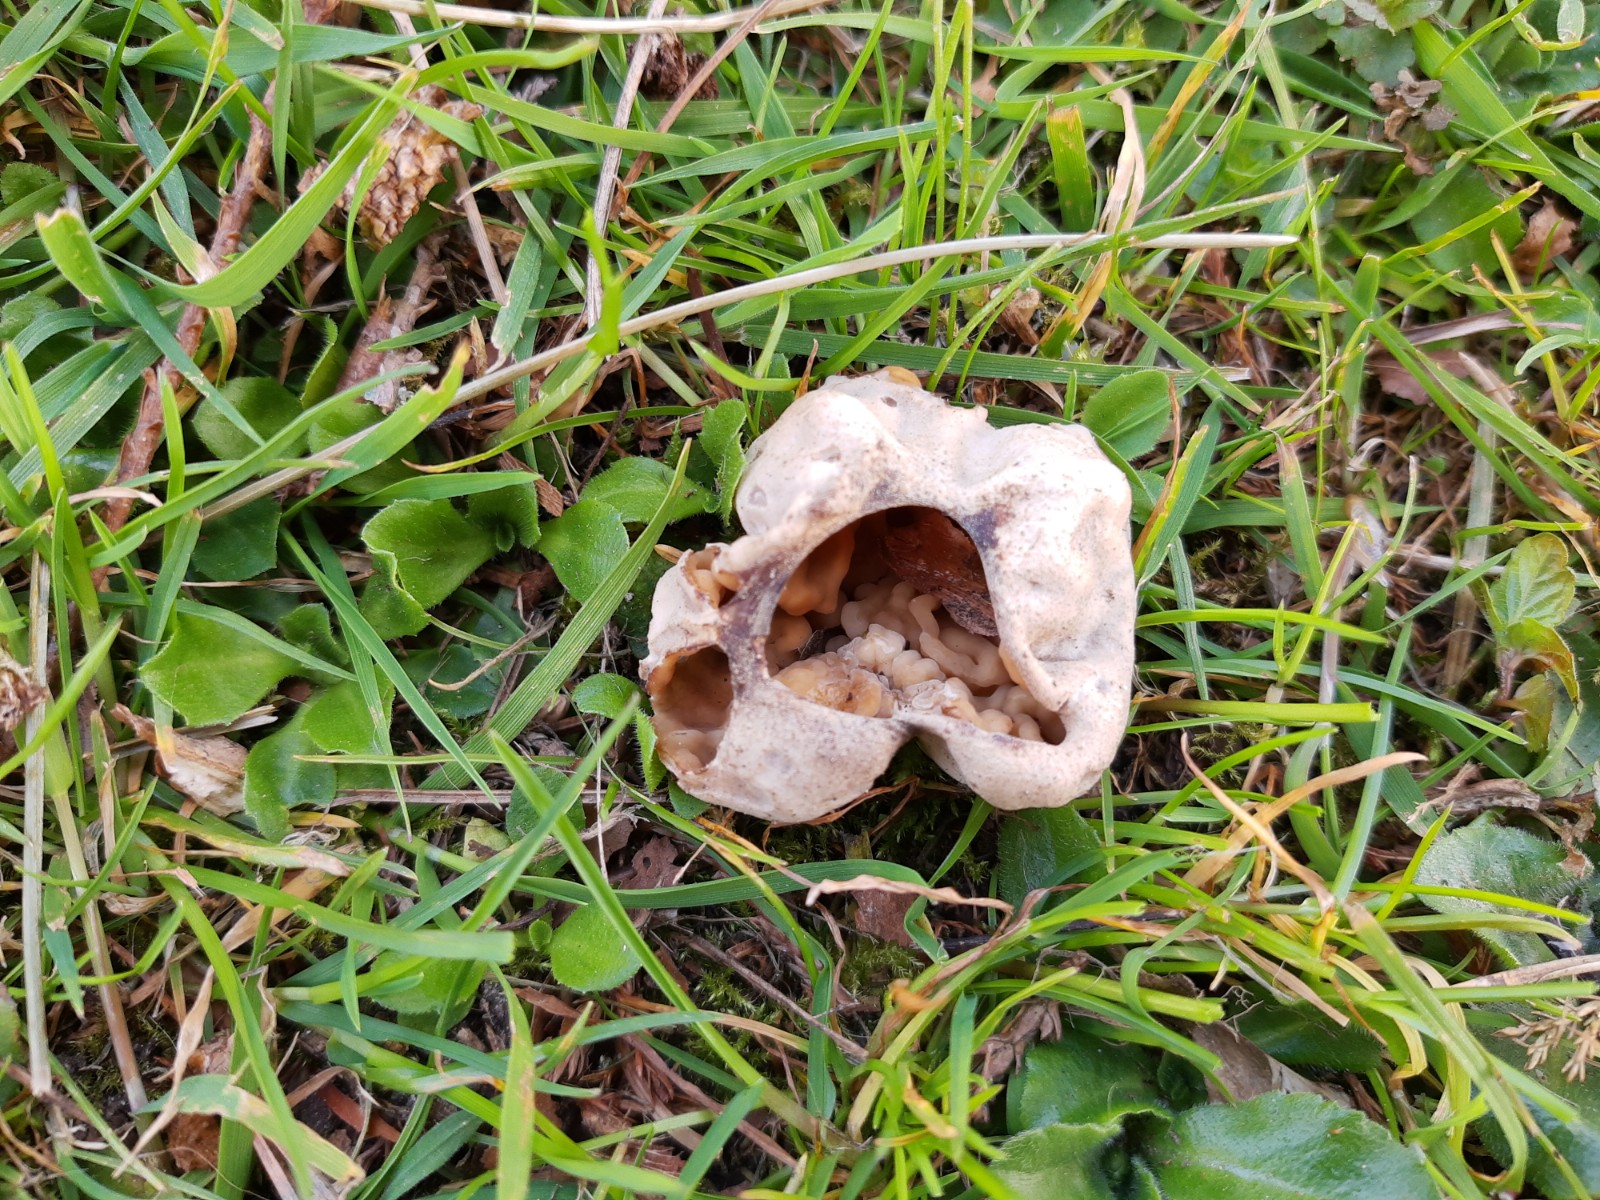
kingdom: Fungi
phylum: Ascomycota
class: Pezizomycetes
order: Pezizales
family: Morchellaceae
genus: Disciotis
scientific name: Disciotis venosa
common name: klor-bægermorkel
